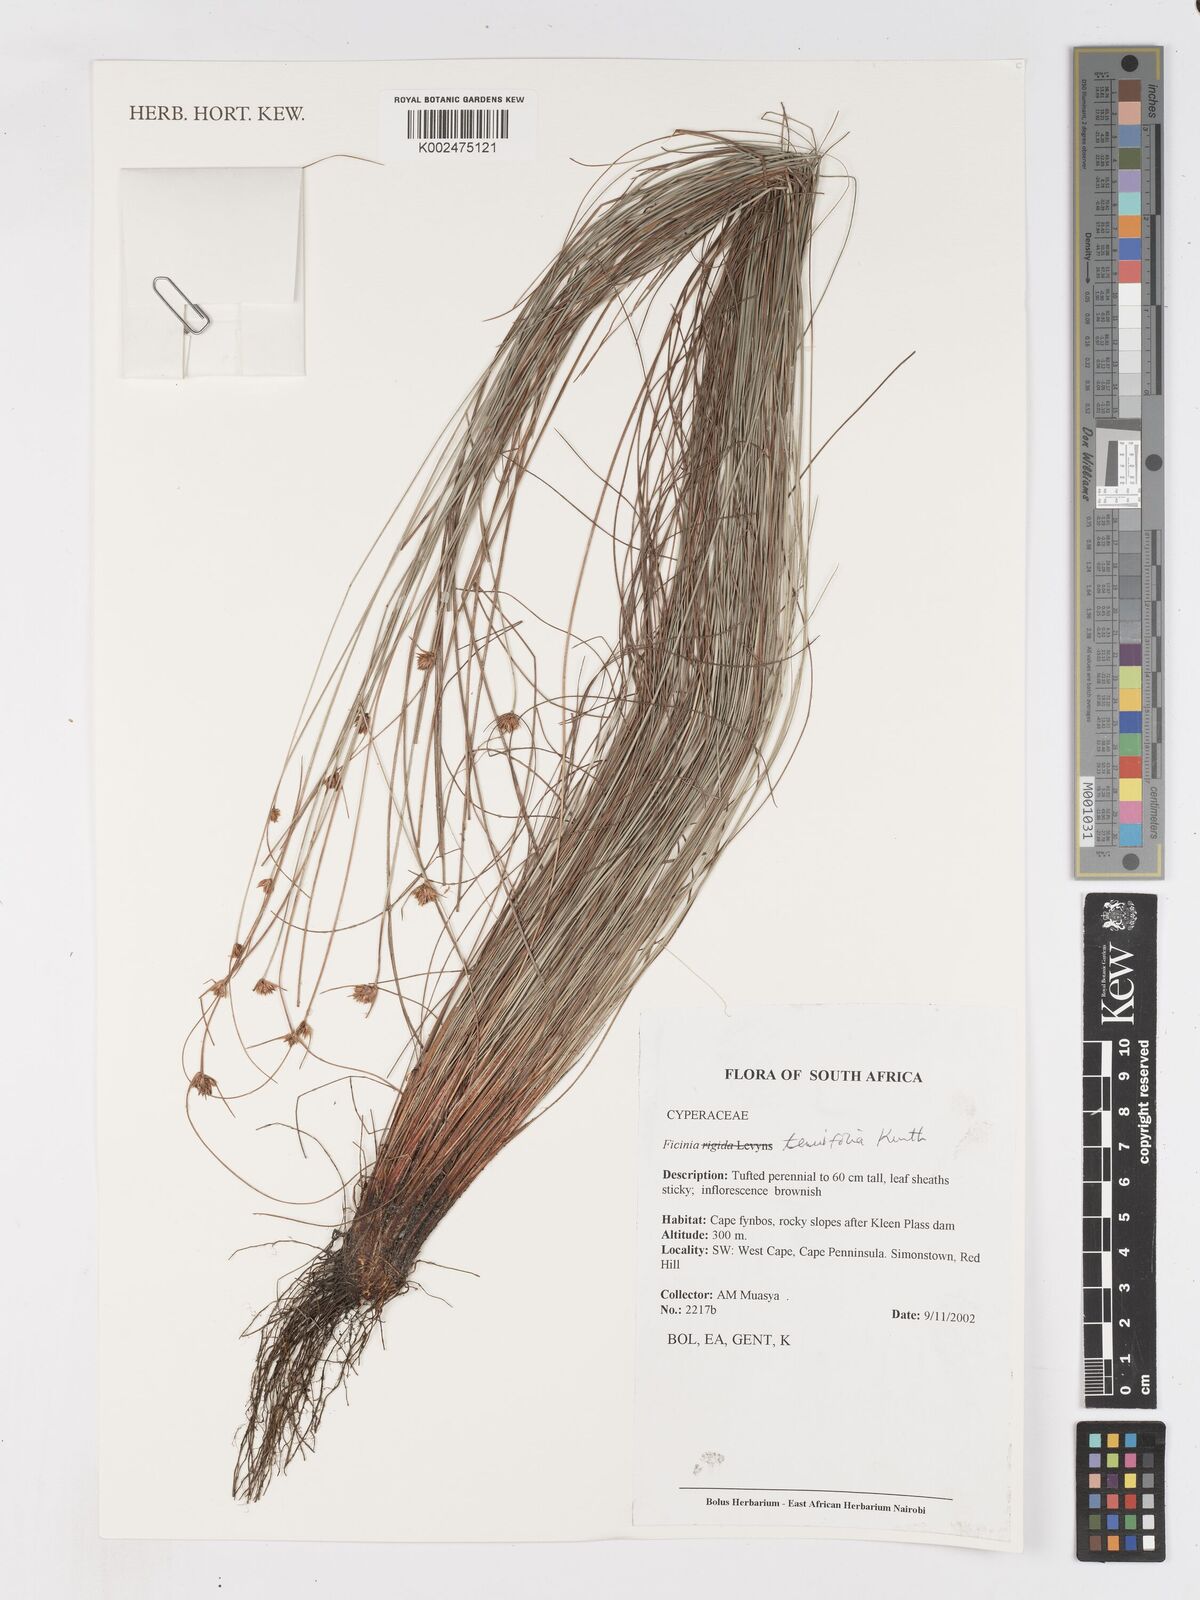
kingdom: Plantae
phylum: Tracheophyta
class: Liliopsida
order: Poales
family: Cyperaceae
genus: Ficinia
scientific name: Ficinia filiformis
